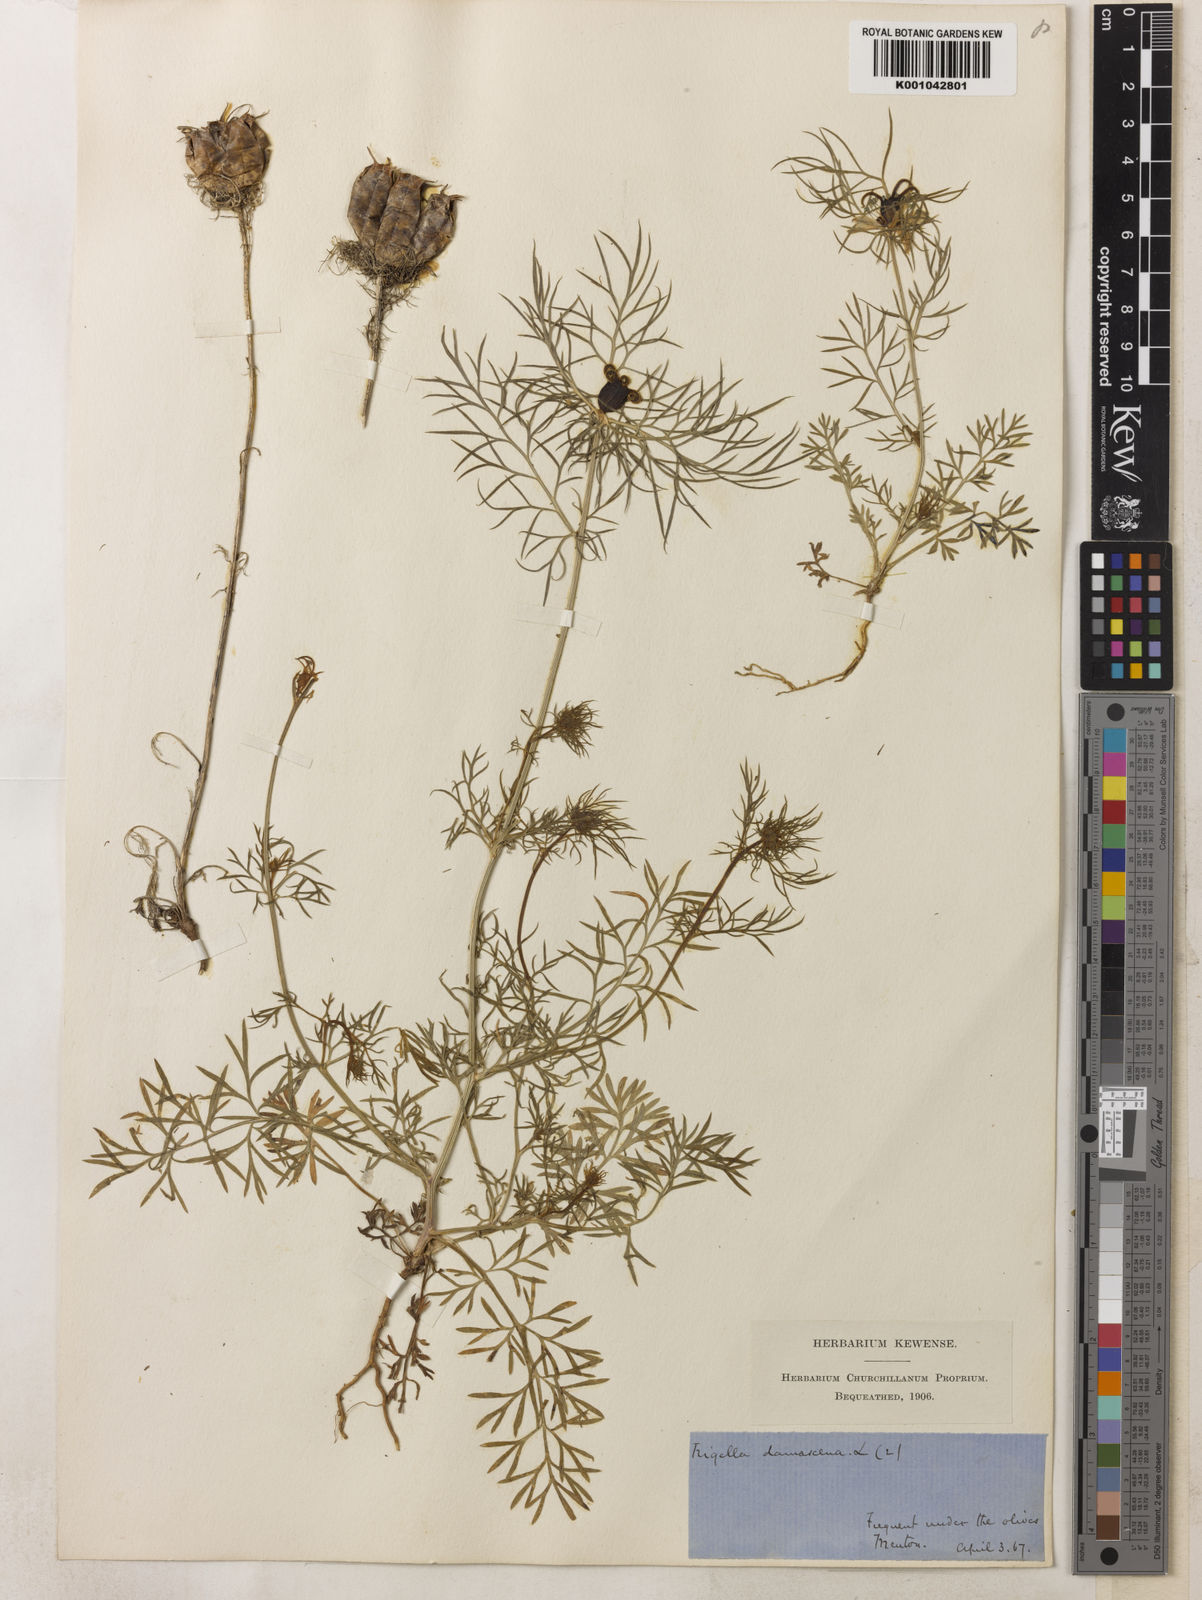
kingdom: Plantae
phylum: Tracheophyta
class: Magnoliopsida
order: Ranunculales
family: Ranunculaceae
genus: Nigella
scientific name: Nigella damascena
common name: Love-in-a-mist
